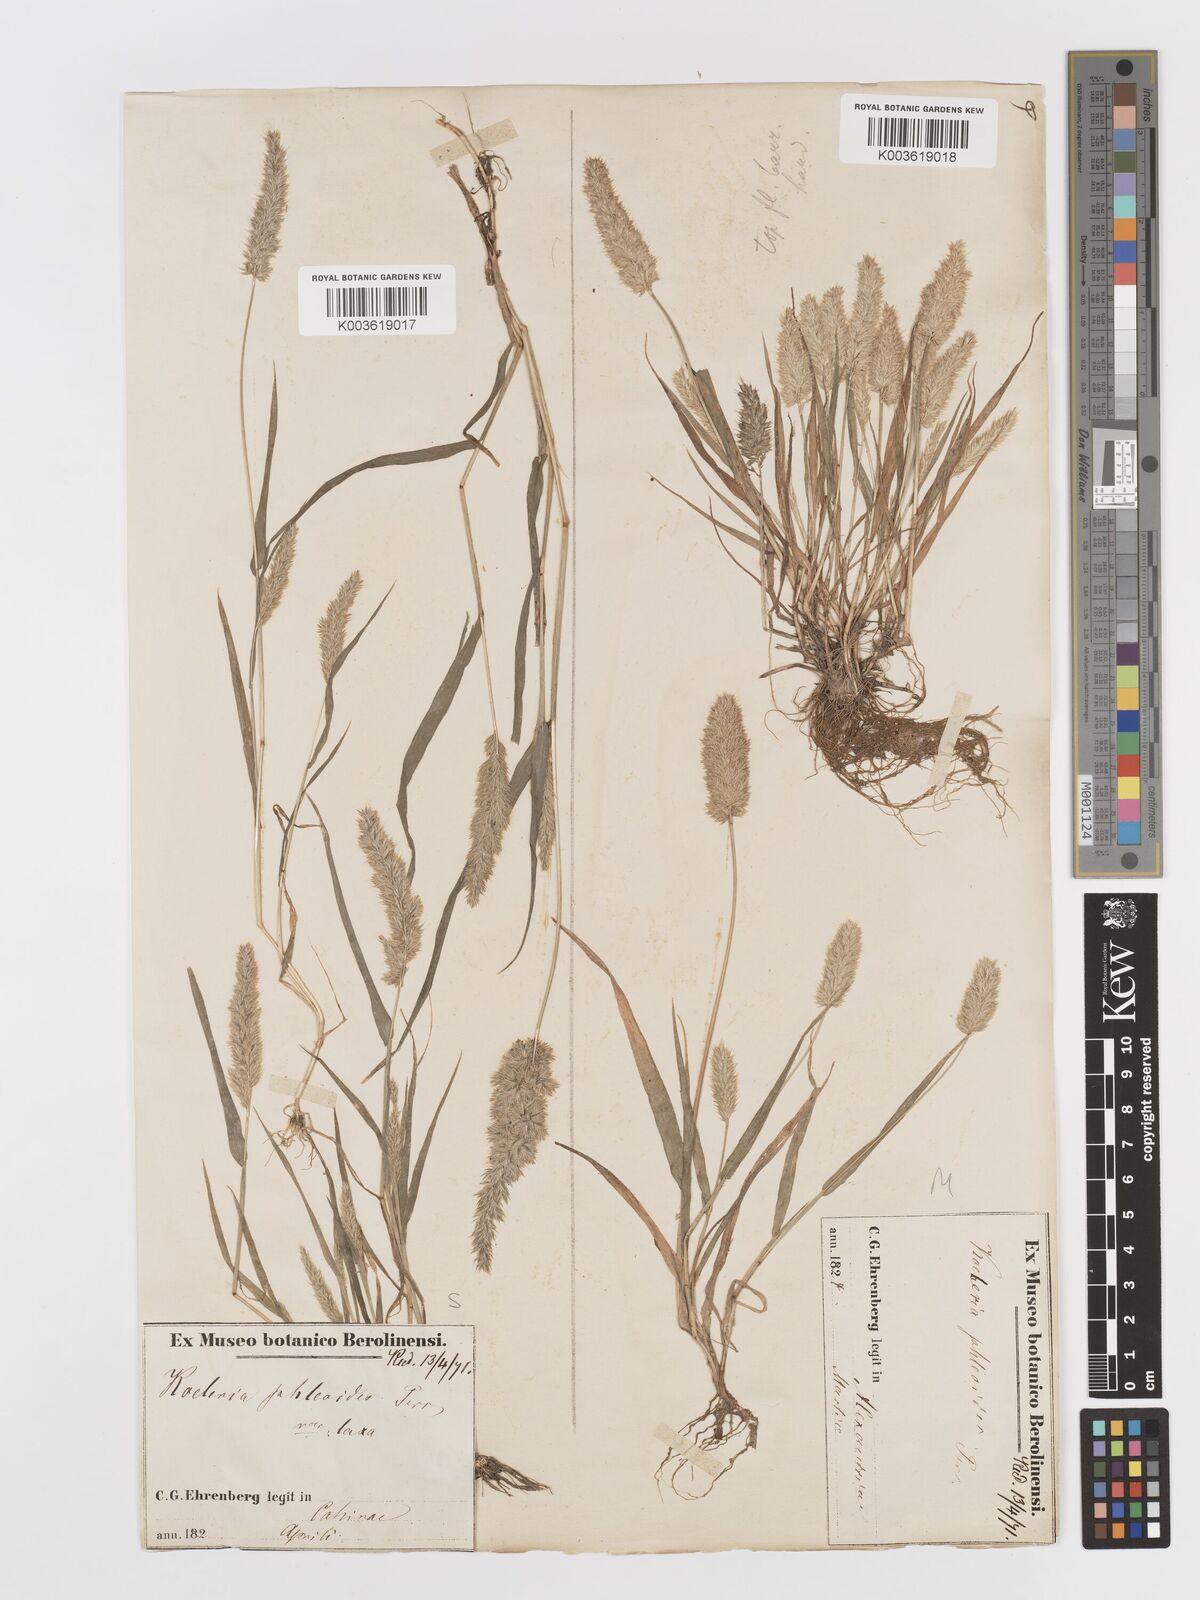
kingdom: Plantae
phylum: Tracheophyta
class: Liliopsida
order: Poales
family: Poaceae
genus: Rostraria
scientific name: Rostraria cristata
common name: Mediterranean hair-grass
